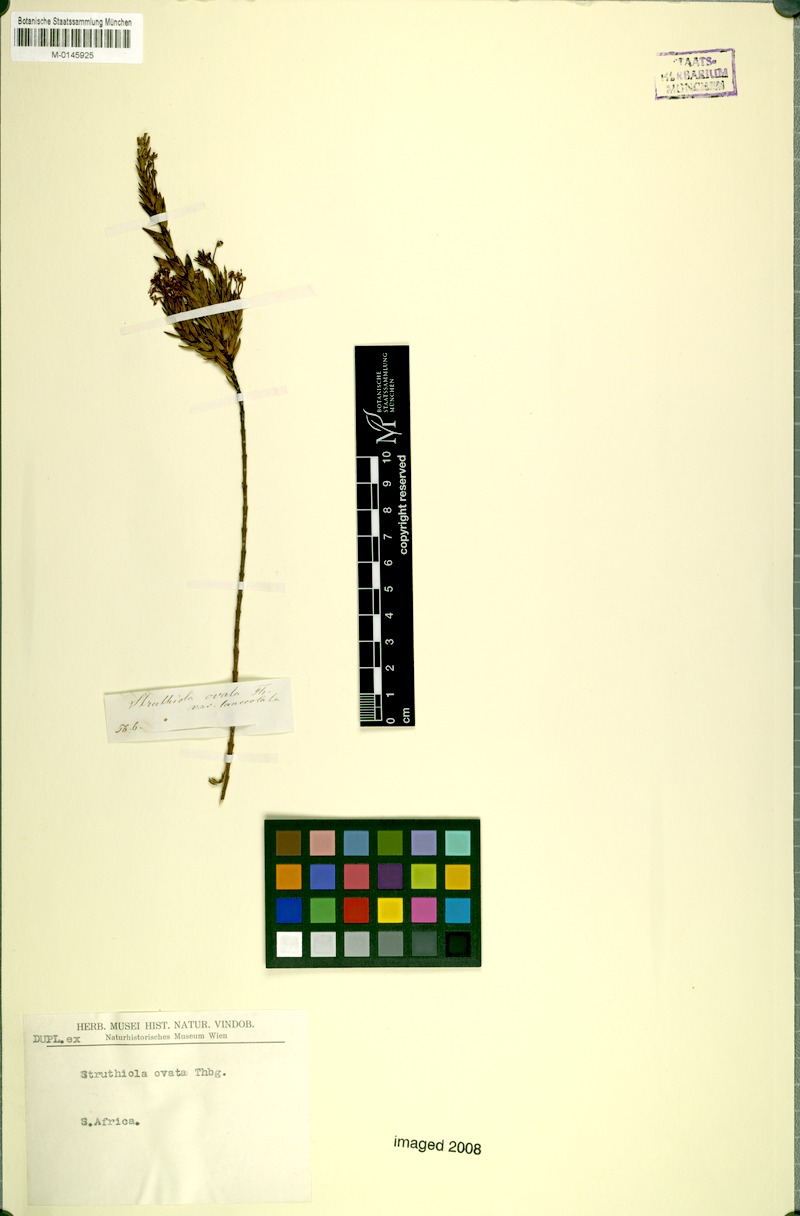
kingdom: Plantae
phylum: Tracheophyta
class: Magnoliopsida
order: Malvales
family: Thymelaeaceae
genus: Struthiola
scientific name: Struthiola myrsinites
